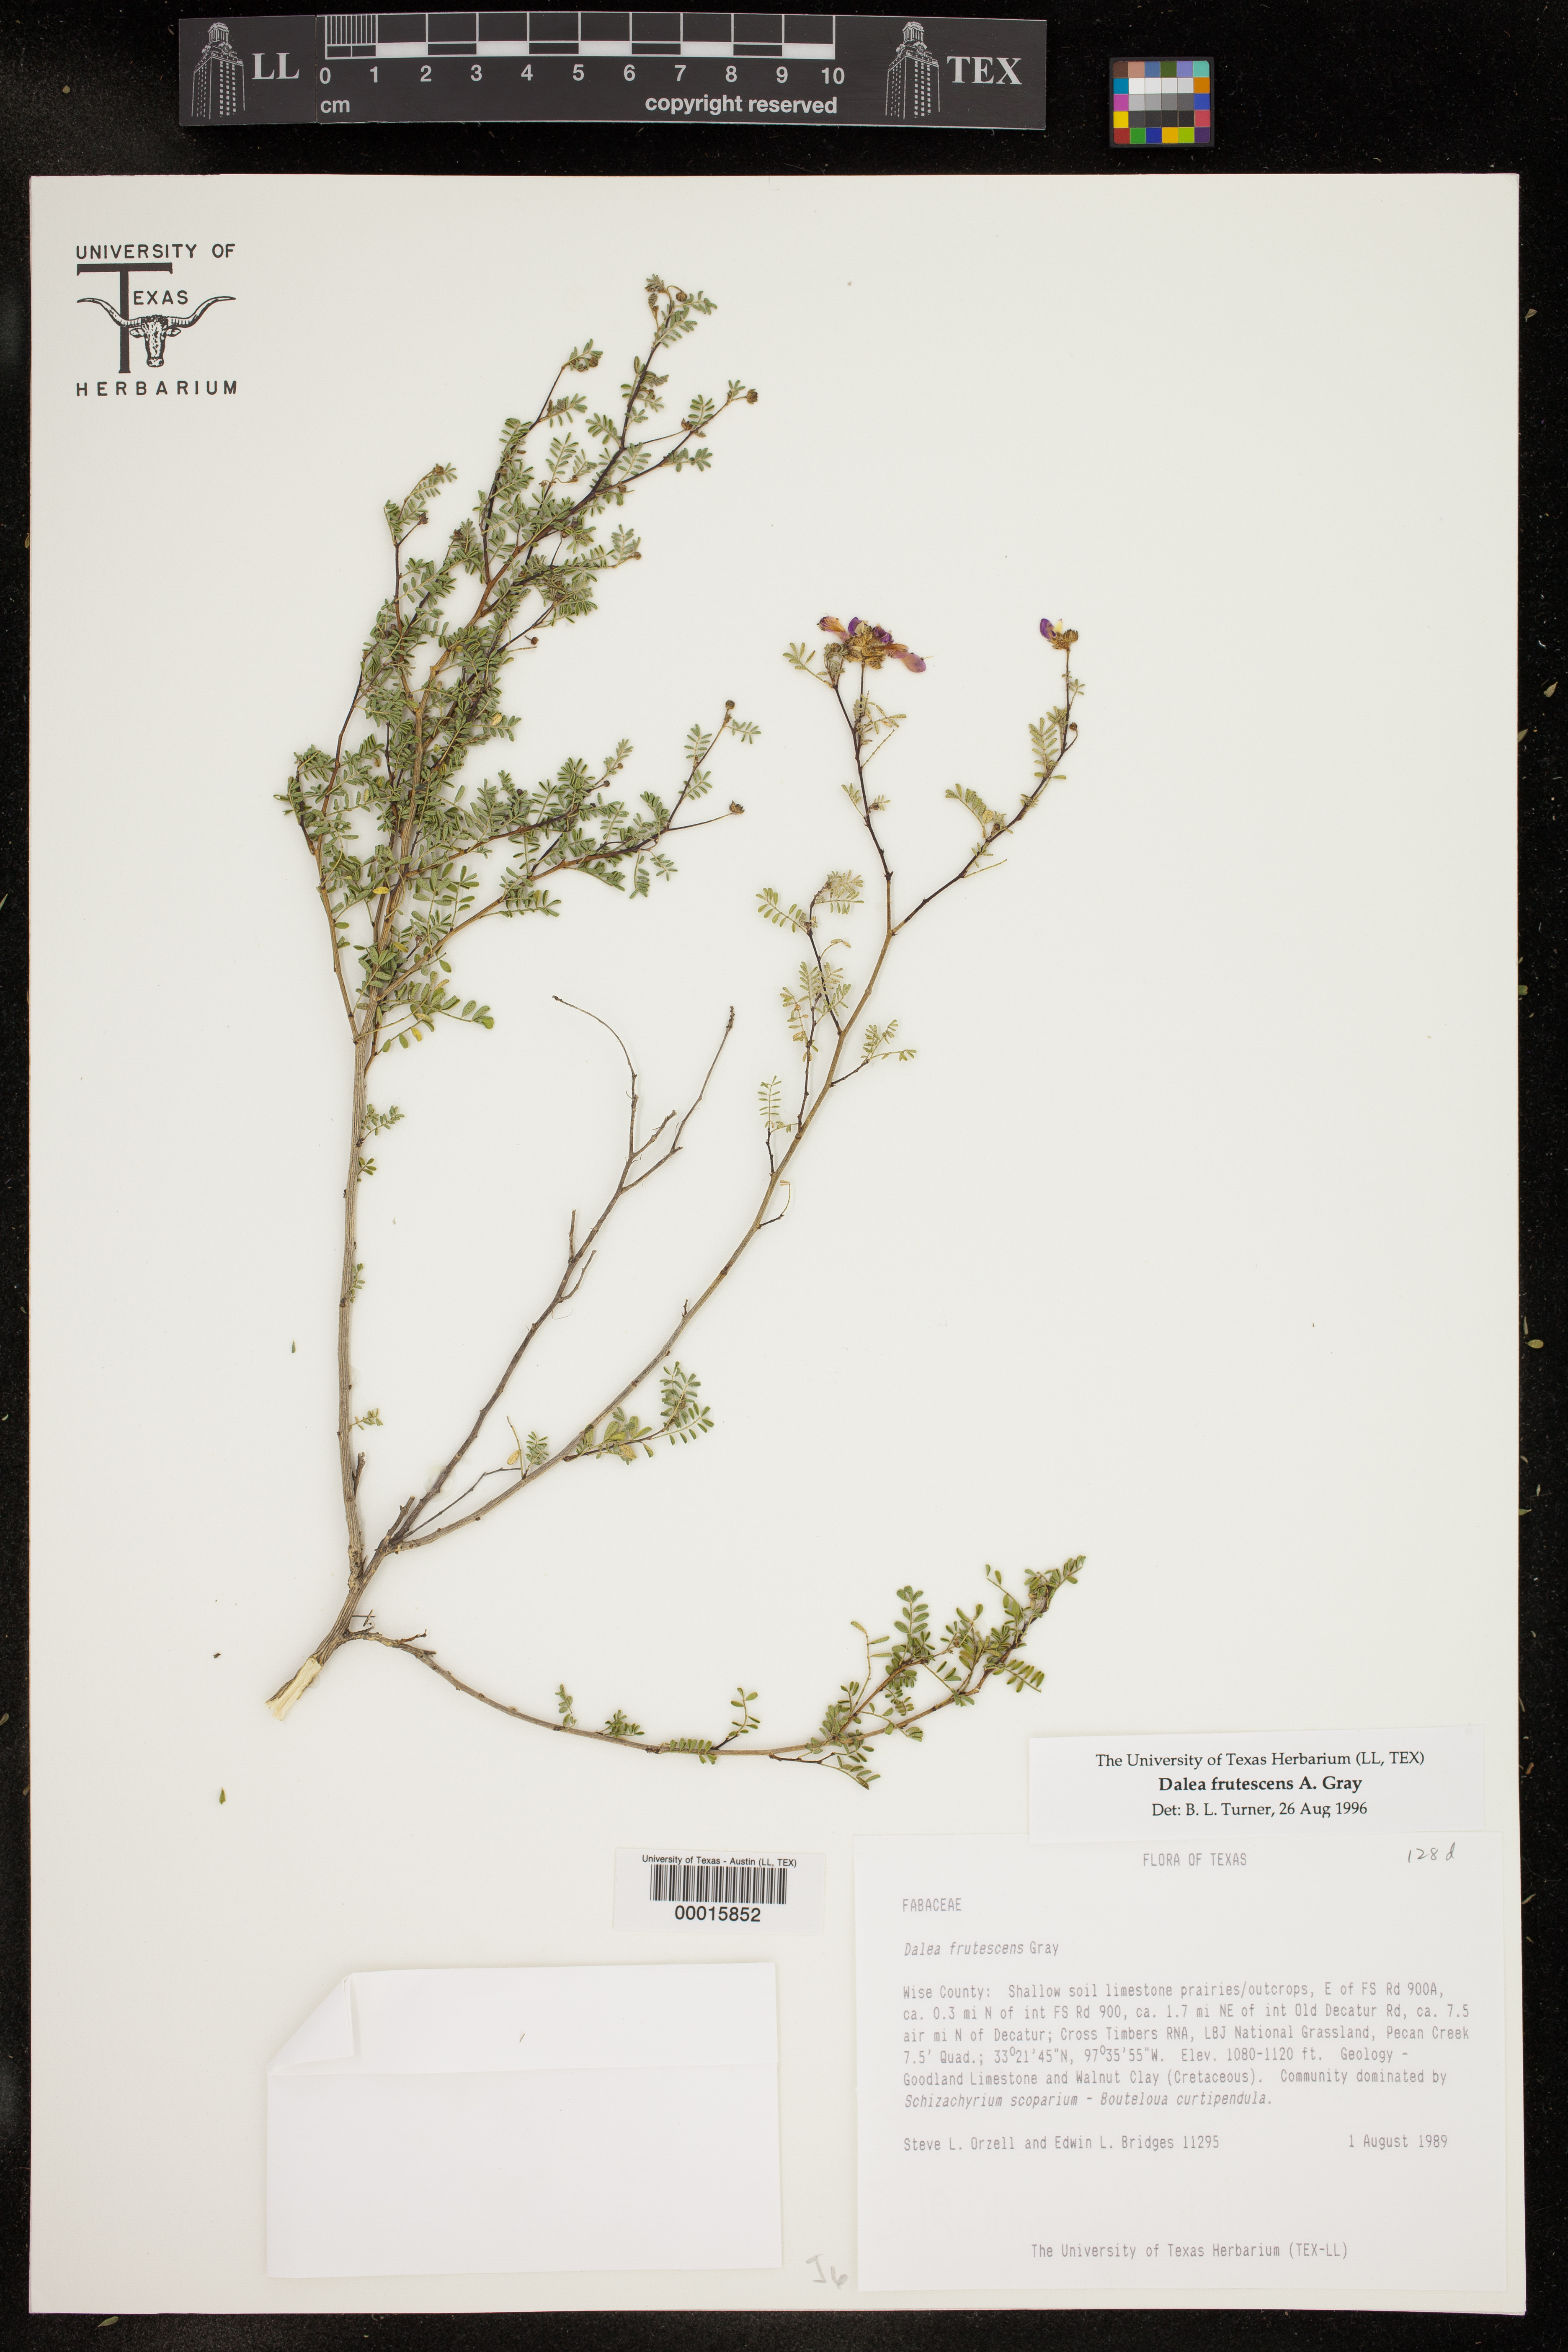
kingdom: Plantae
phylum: Tracheophyta
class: Magnoliopsida
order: Fabales
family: Fabaceae
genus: Dalea
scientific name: Dalea frutescens
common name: Black dalea
